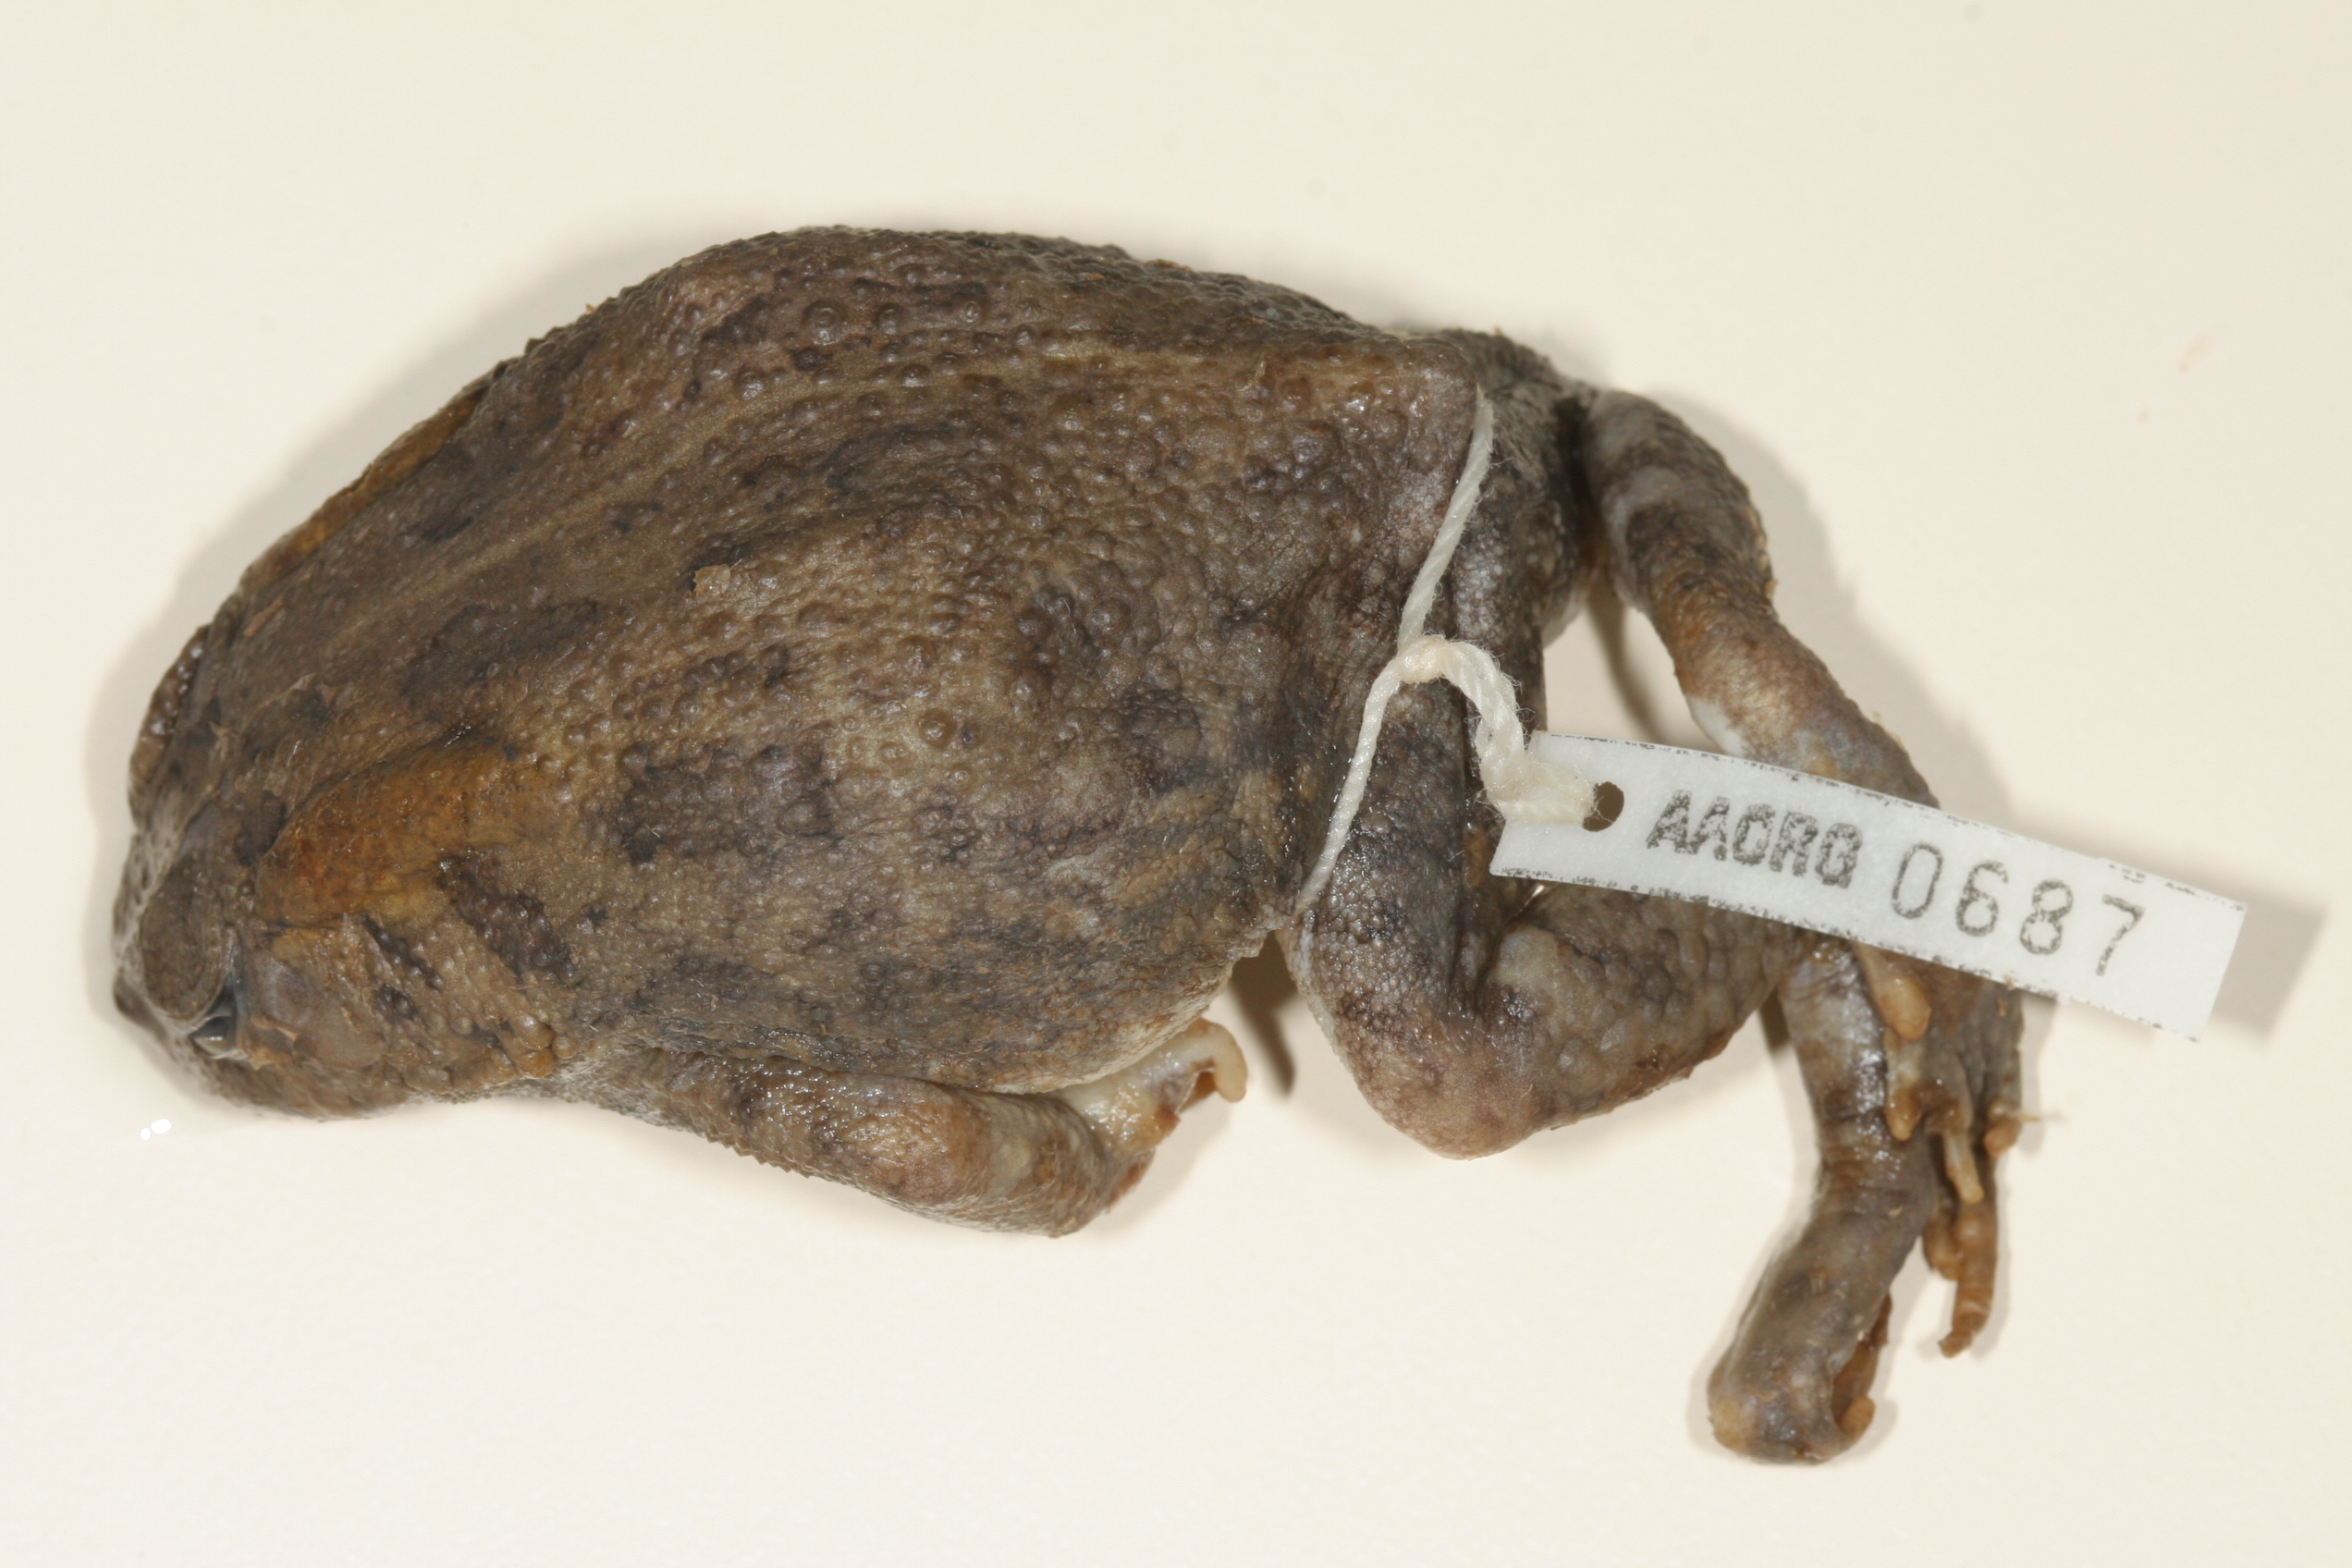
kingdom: Animalia
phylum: Chordata
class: Amphibia
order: Anura
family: Bufonidae
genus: Sclerophrys
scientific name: Sclerophrys garmani
